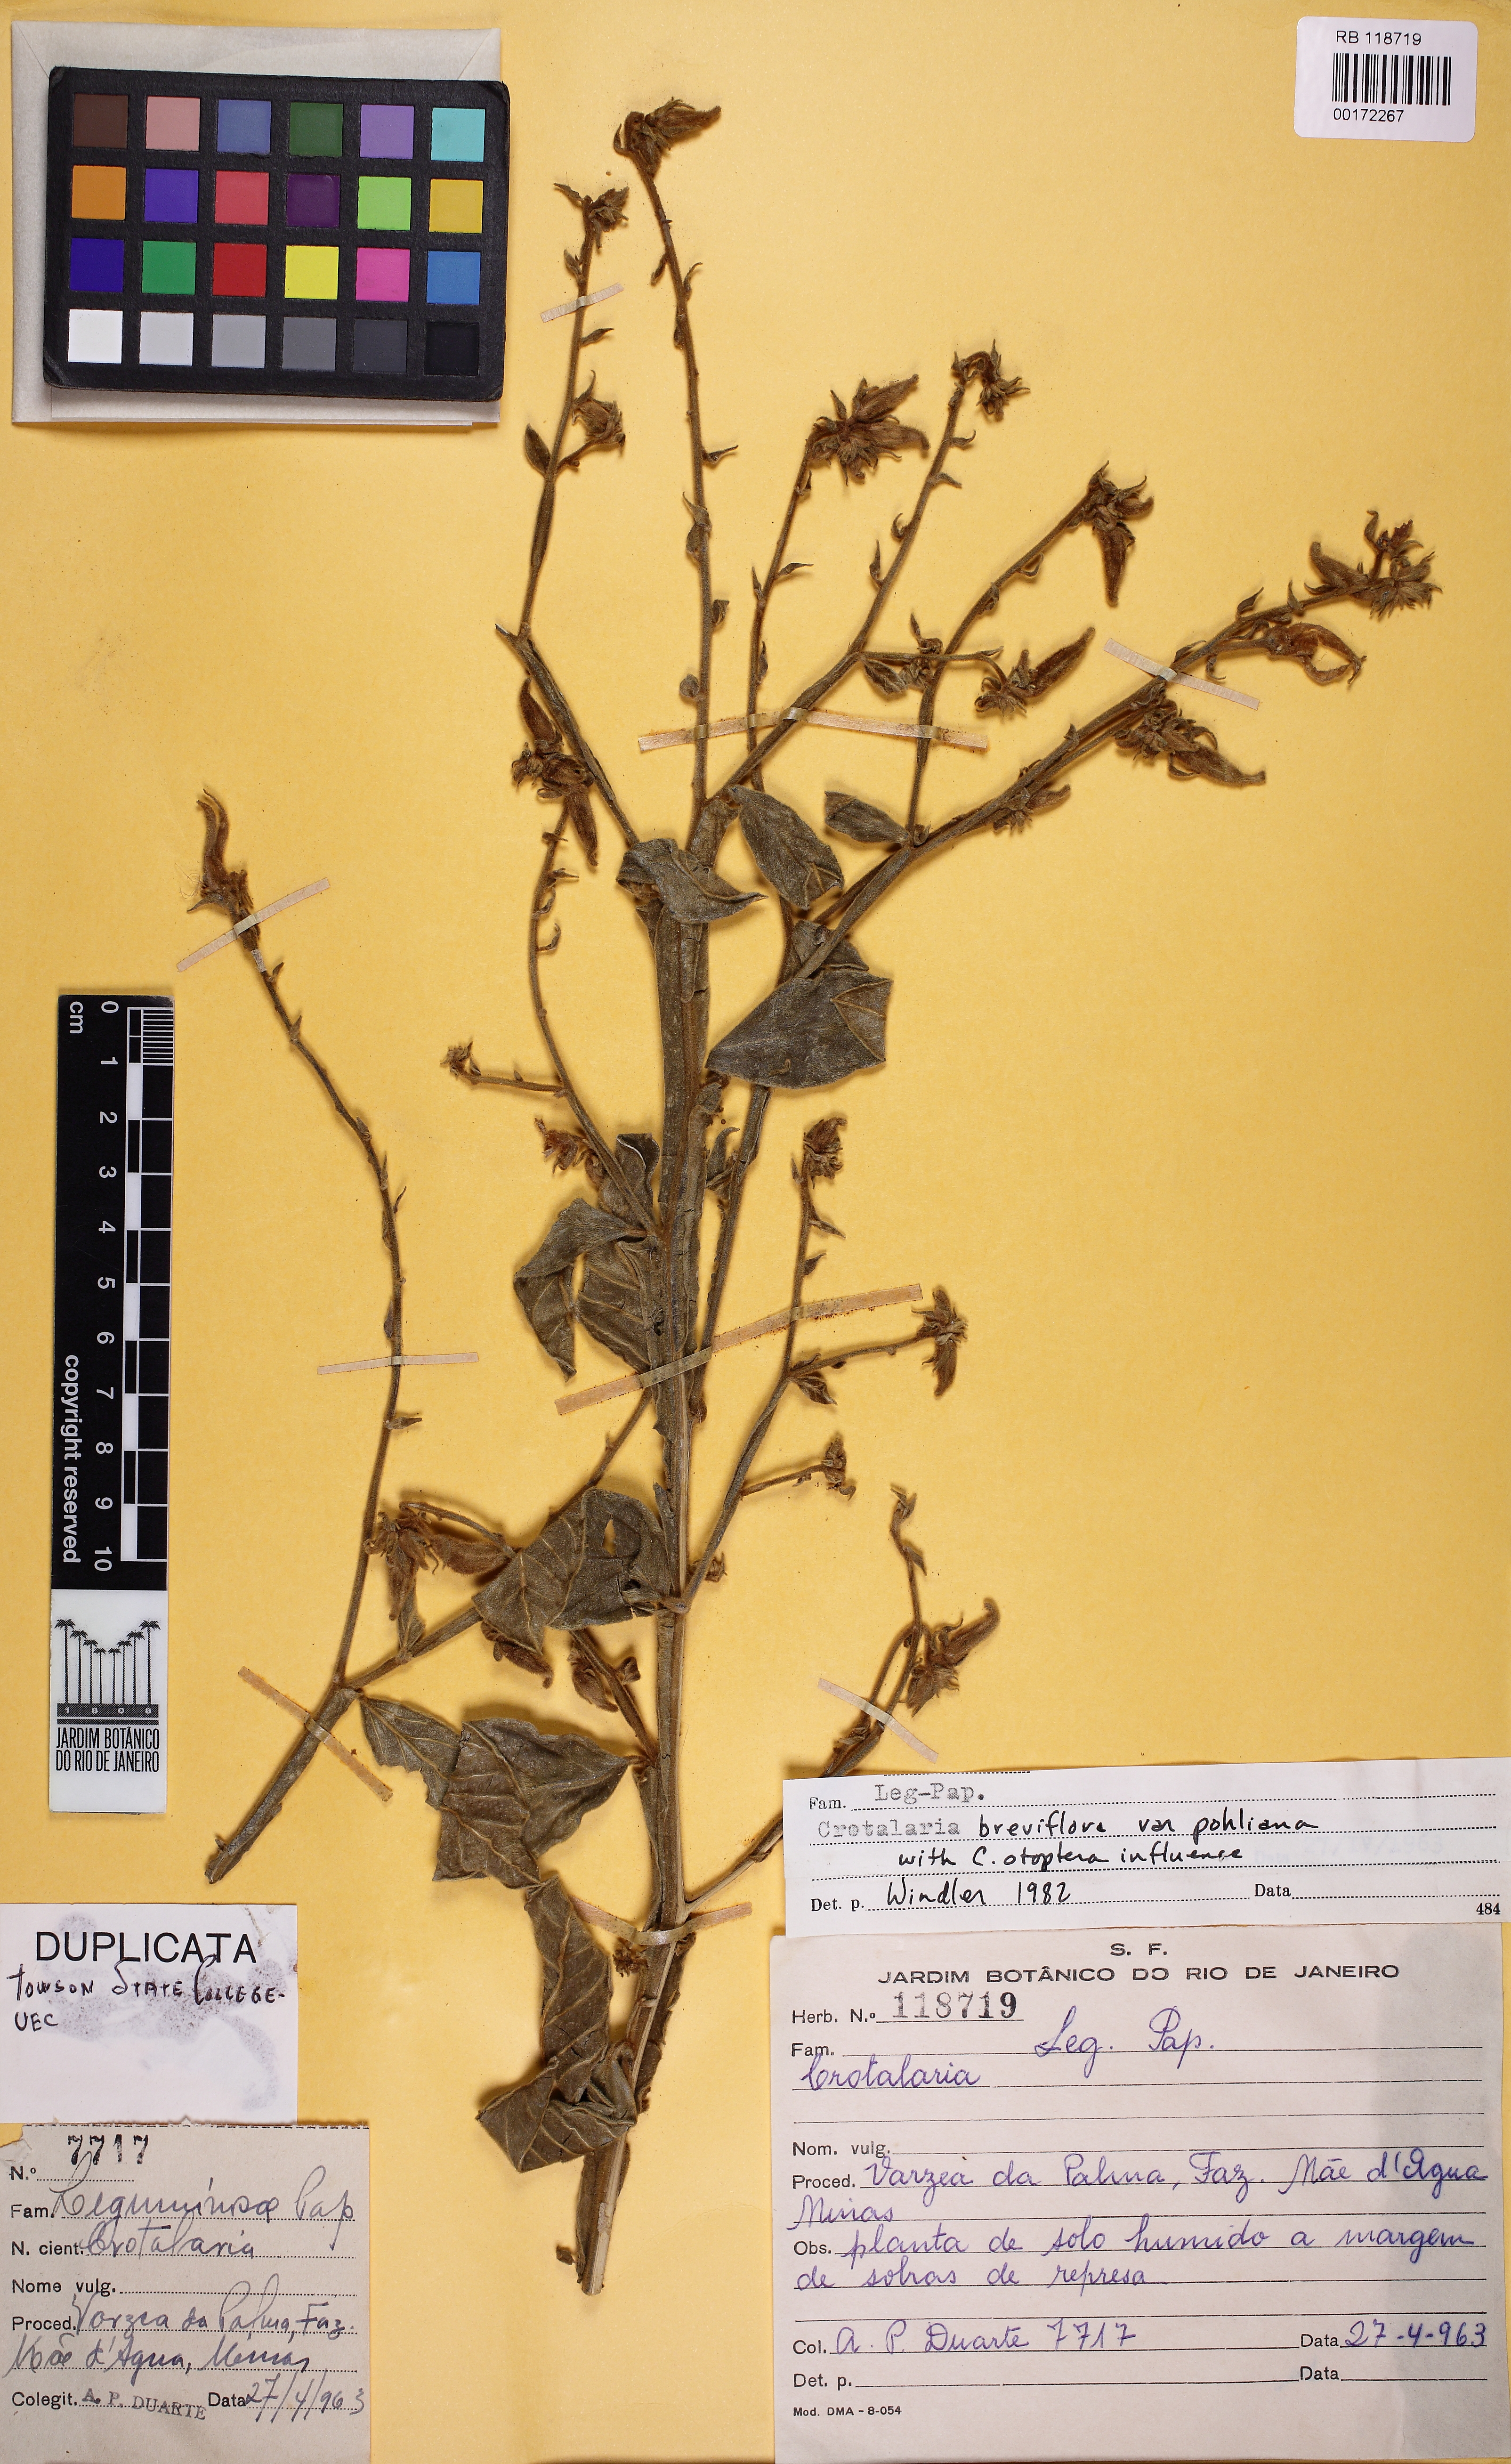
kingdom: Plantae
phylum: Tracheophyta
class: Magnoliopsida
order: Fabales
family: Fabaceae
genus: Crotalaria
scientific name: Crotalaria breviflora
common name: Short-flower crotalaria
